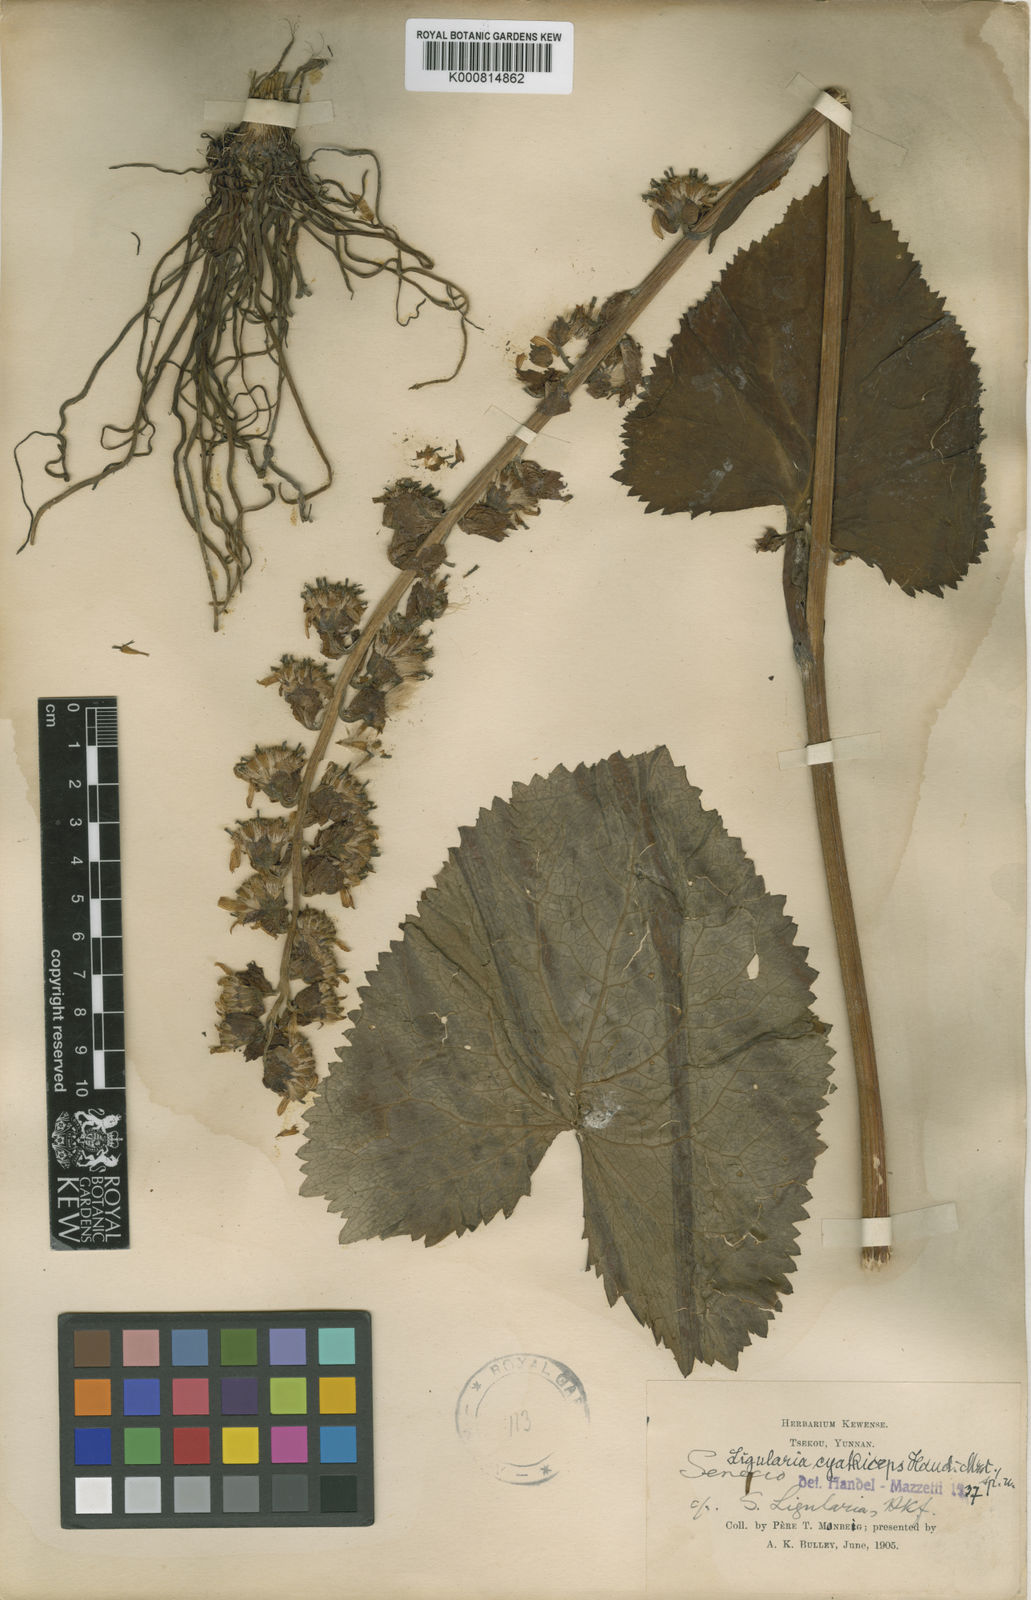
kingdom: Plantae
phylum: Tracheophyta
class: Magnoliopsida
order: Asterales
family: Asteraceae
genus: Ligularia
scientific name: Ligularia cyathiceps
